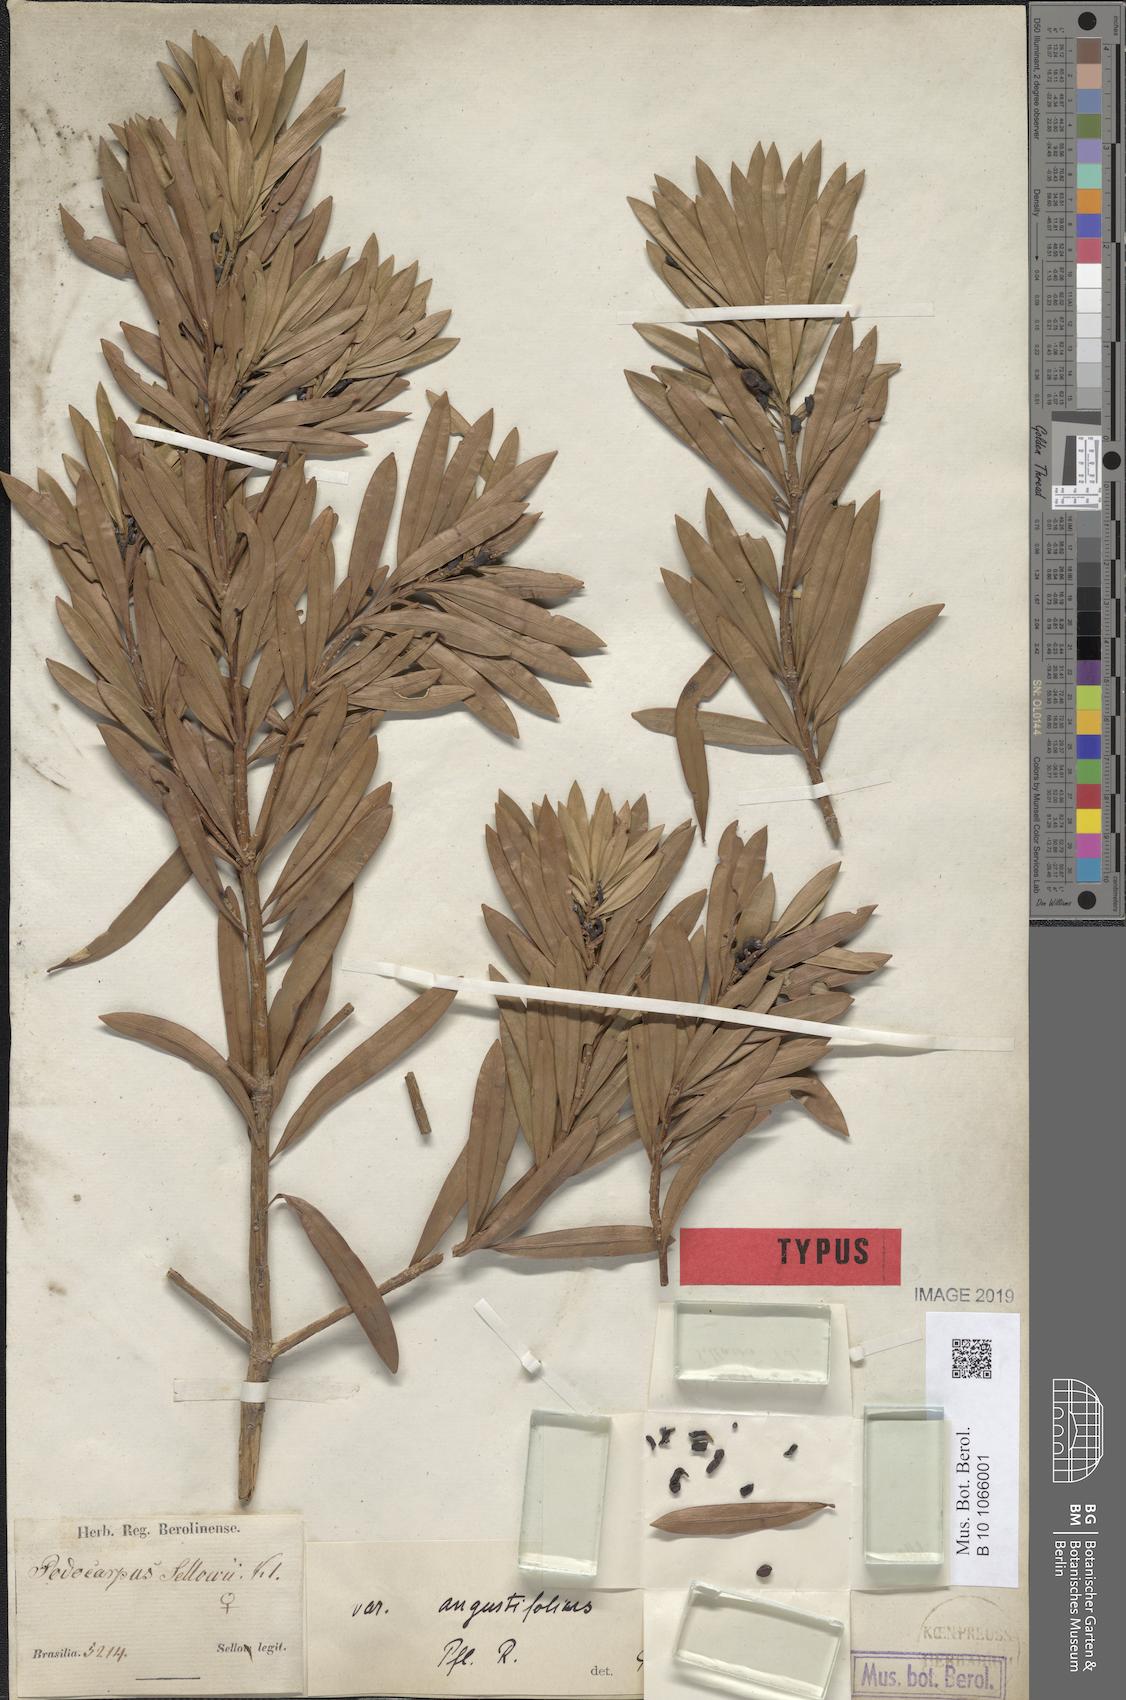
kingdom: Plantae
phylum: Tracheophyta
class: Pinopsida
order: Pinales
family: Podocarpaceae
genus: Podocarpus
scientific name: Podocarpus sellowii
